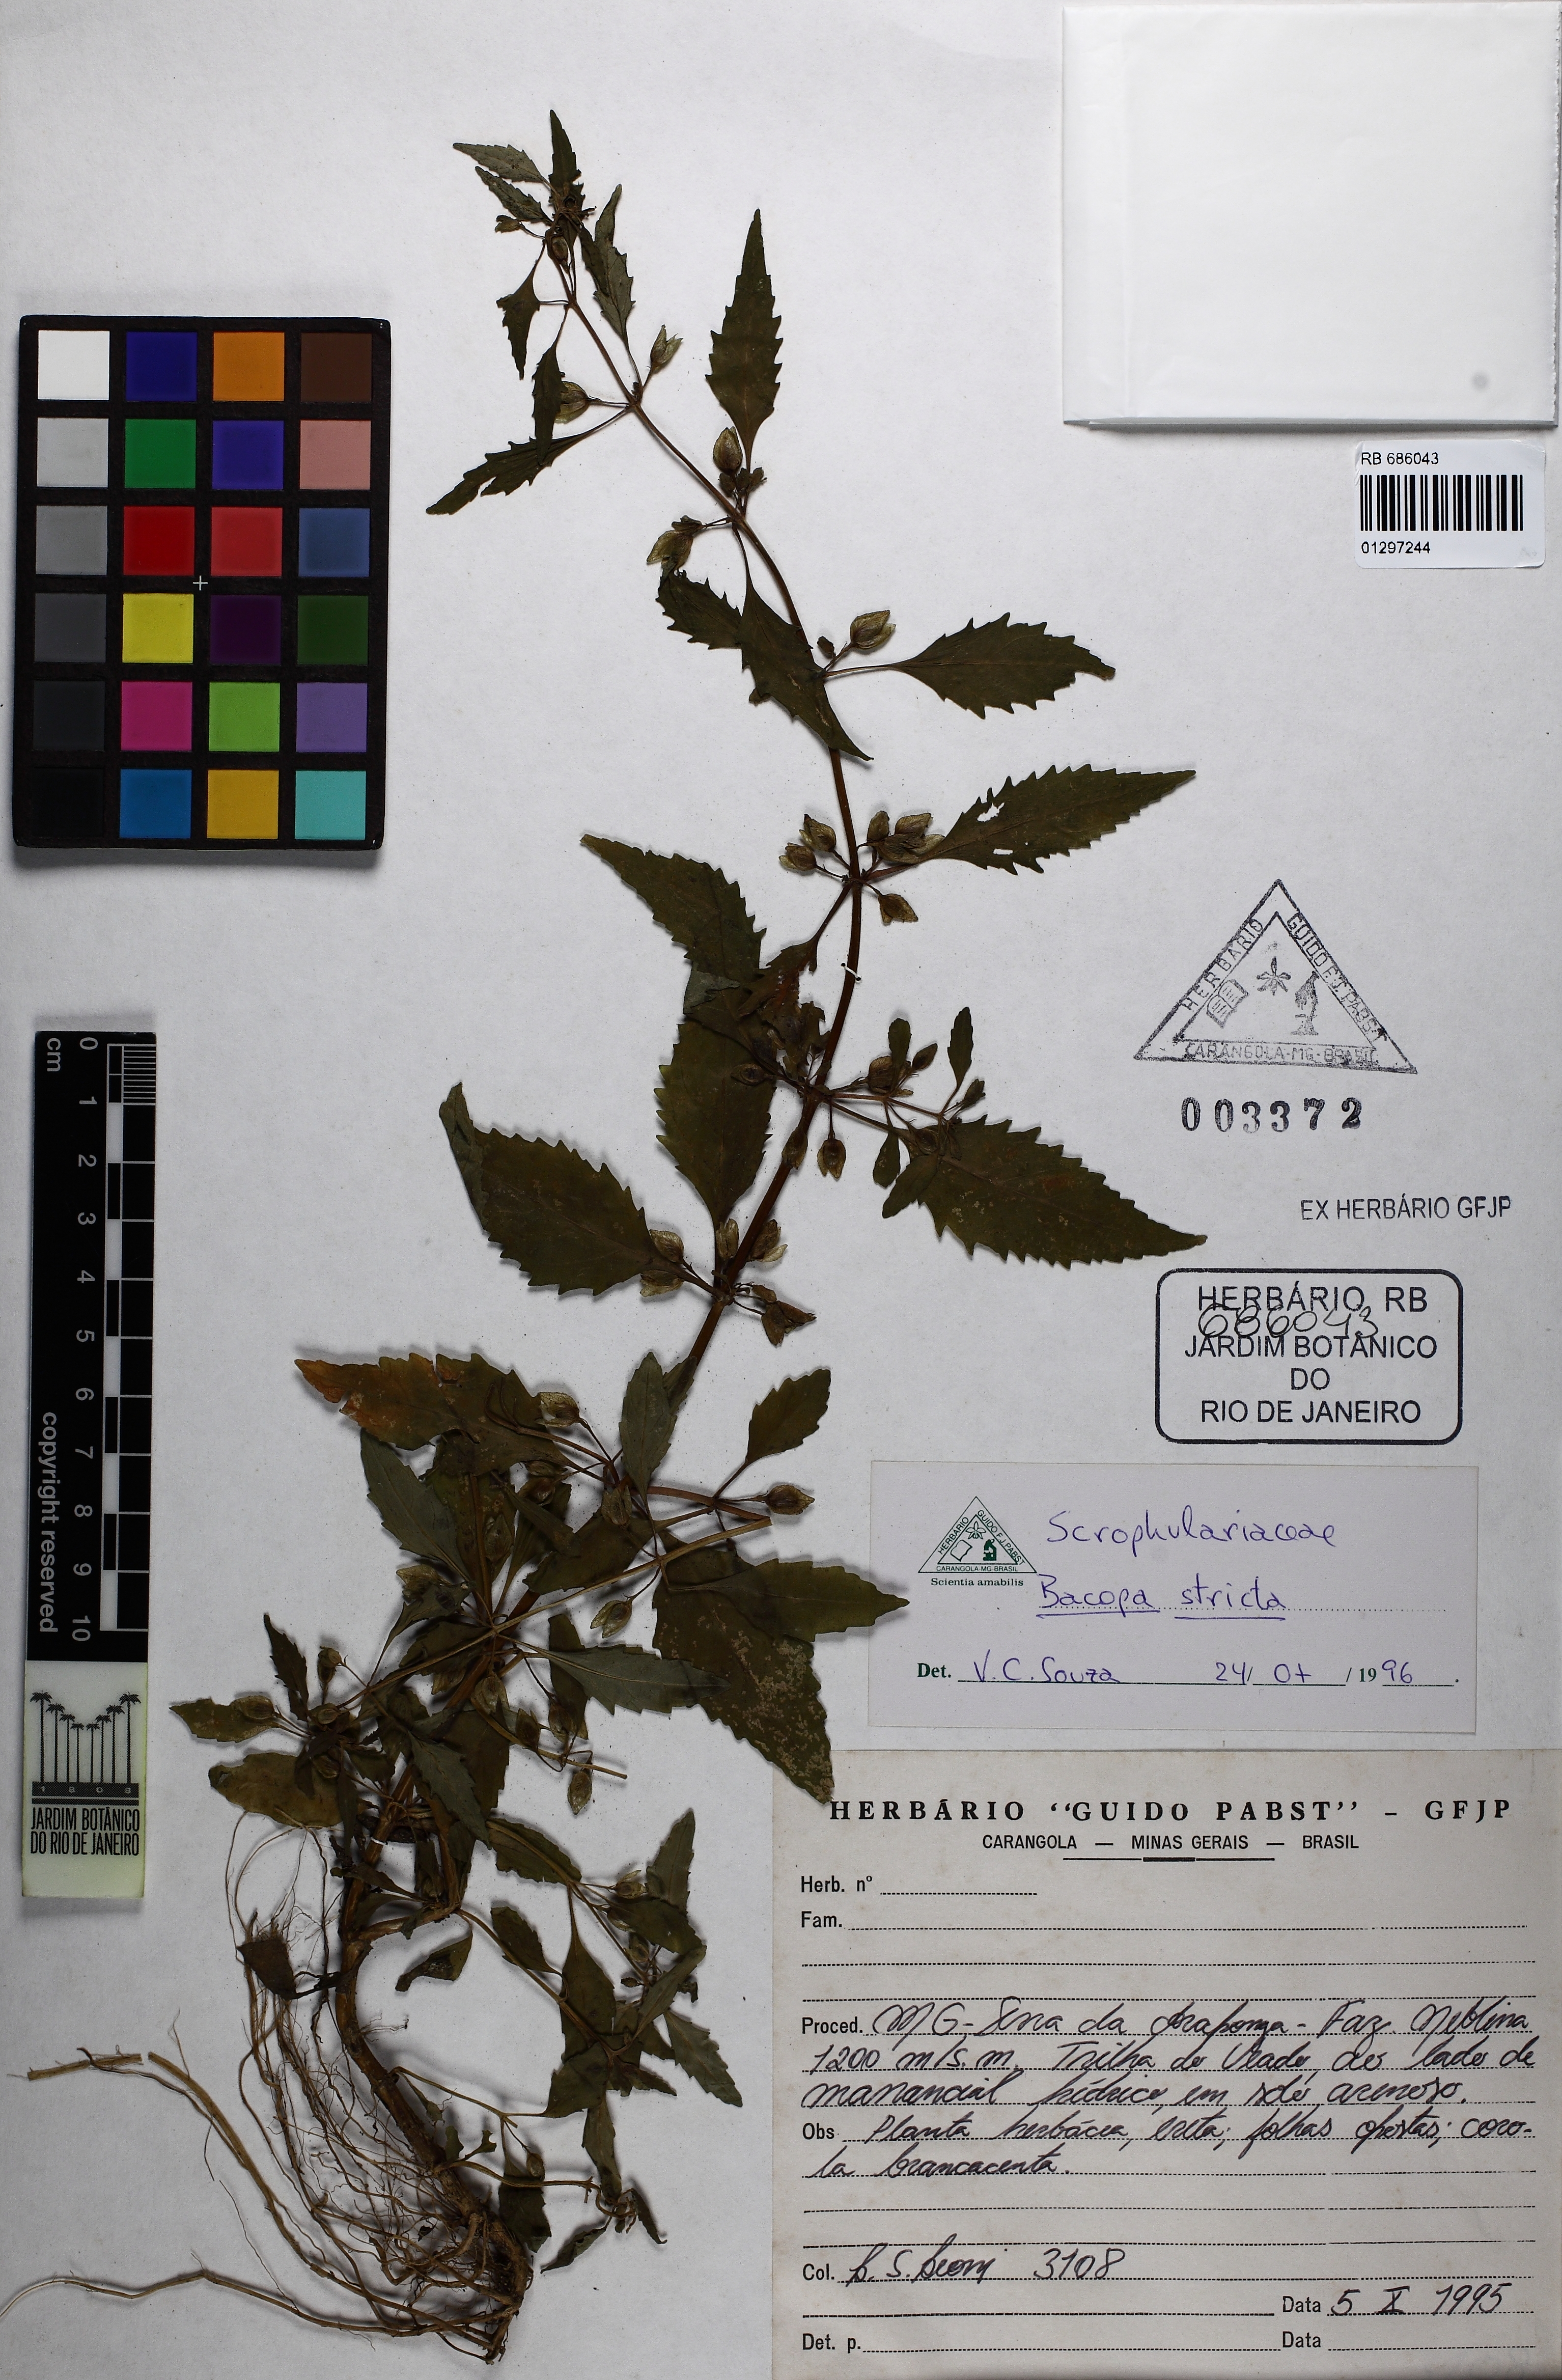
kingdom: Plantae
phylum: Tracheophyta
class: Magnoliopsida
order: Lamiales
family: Plantaginaceae
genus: Bacopa
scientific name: Bacopa stricta
